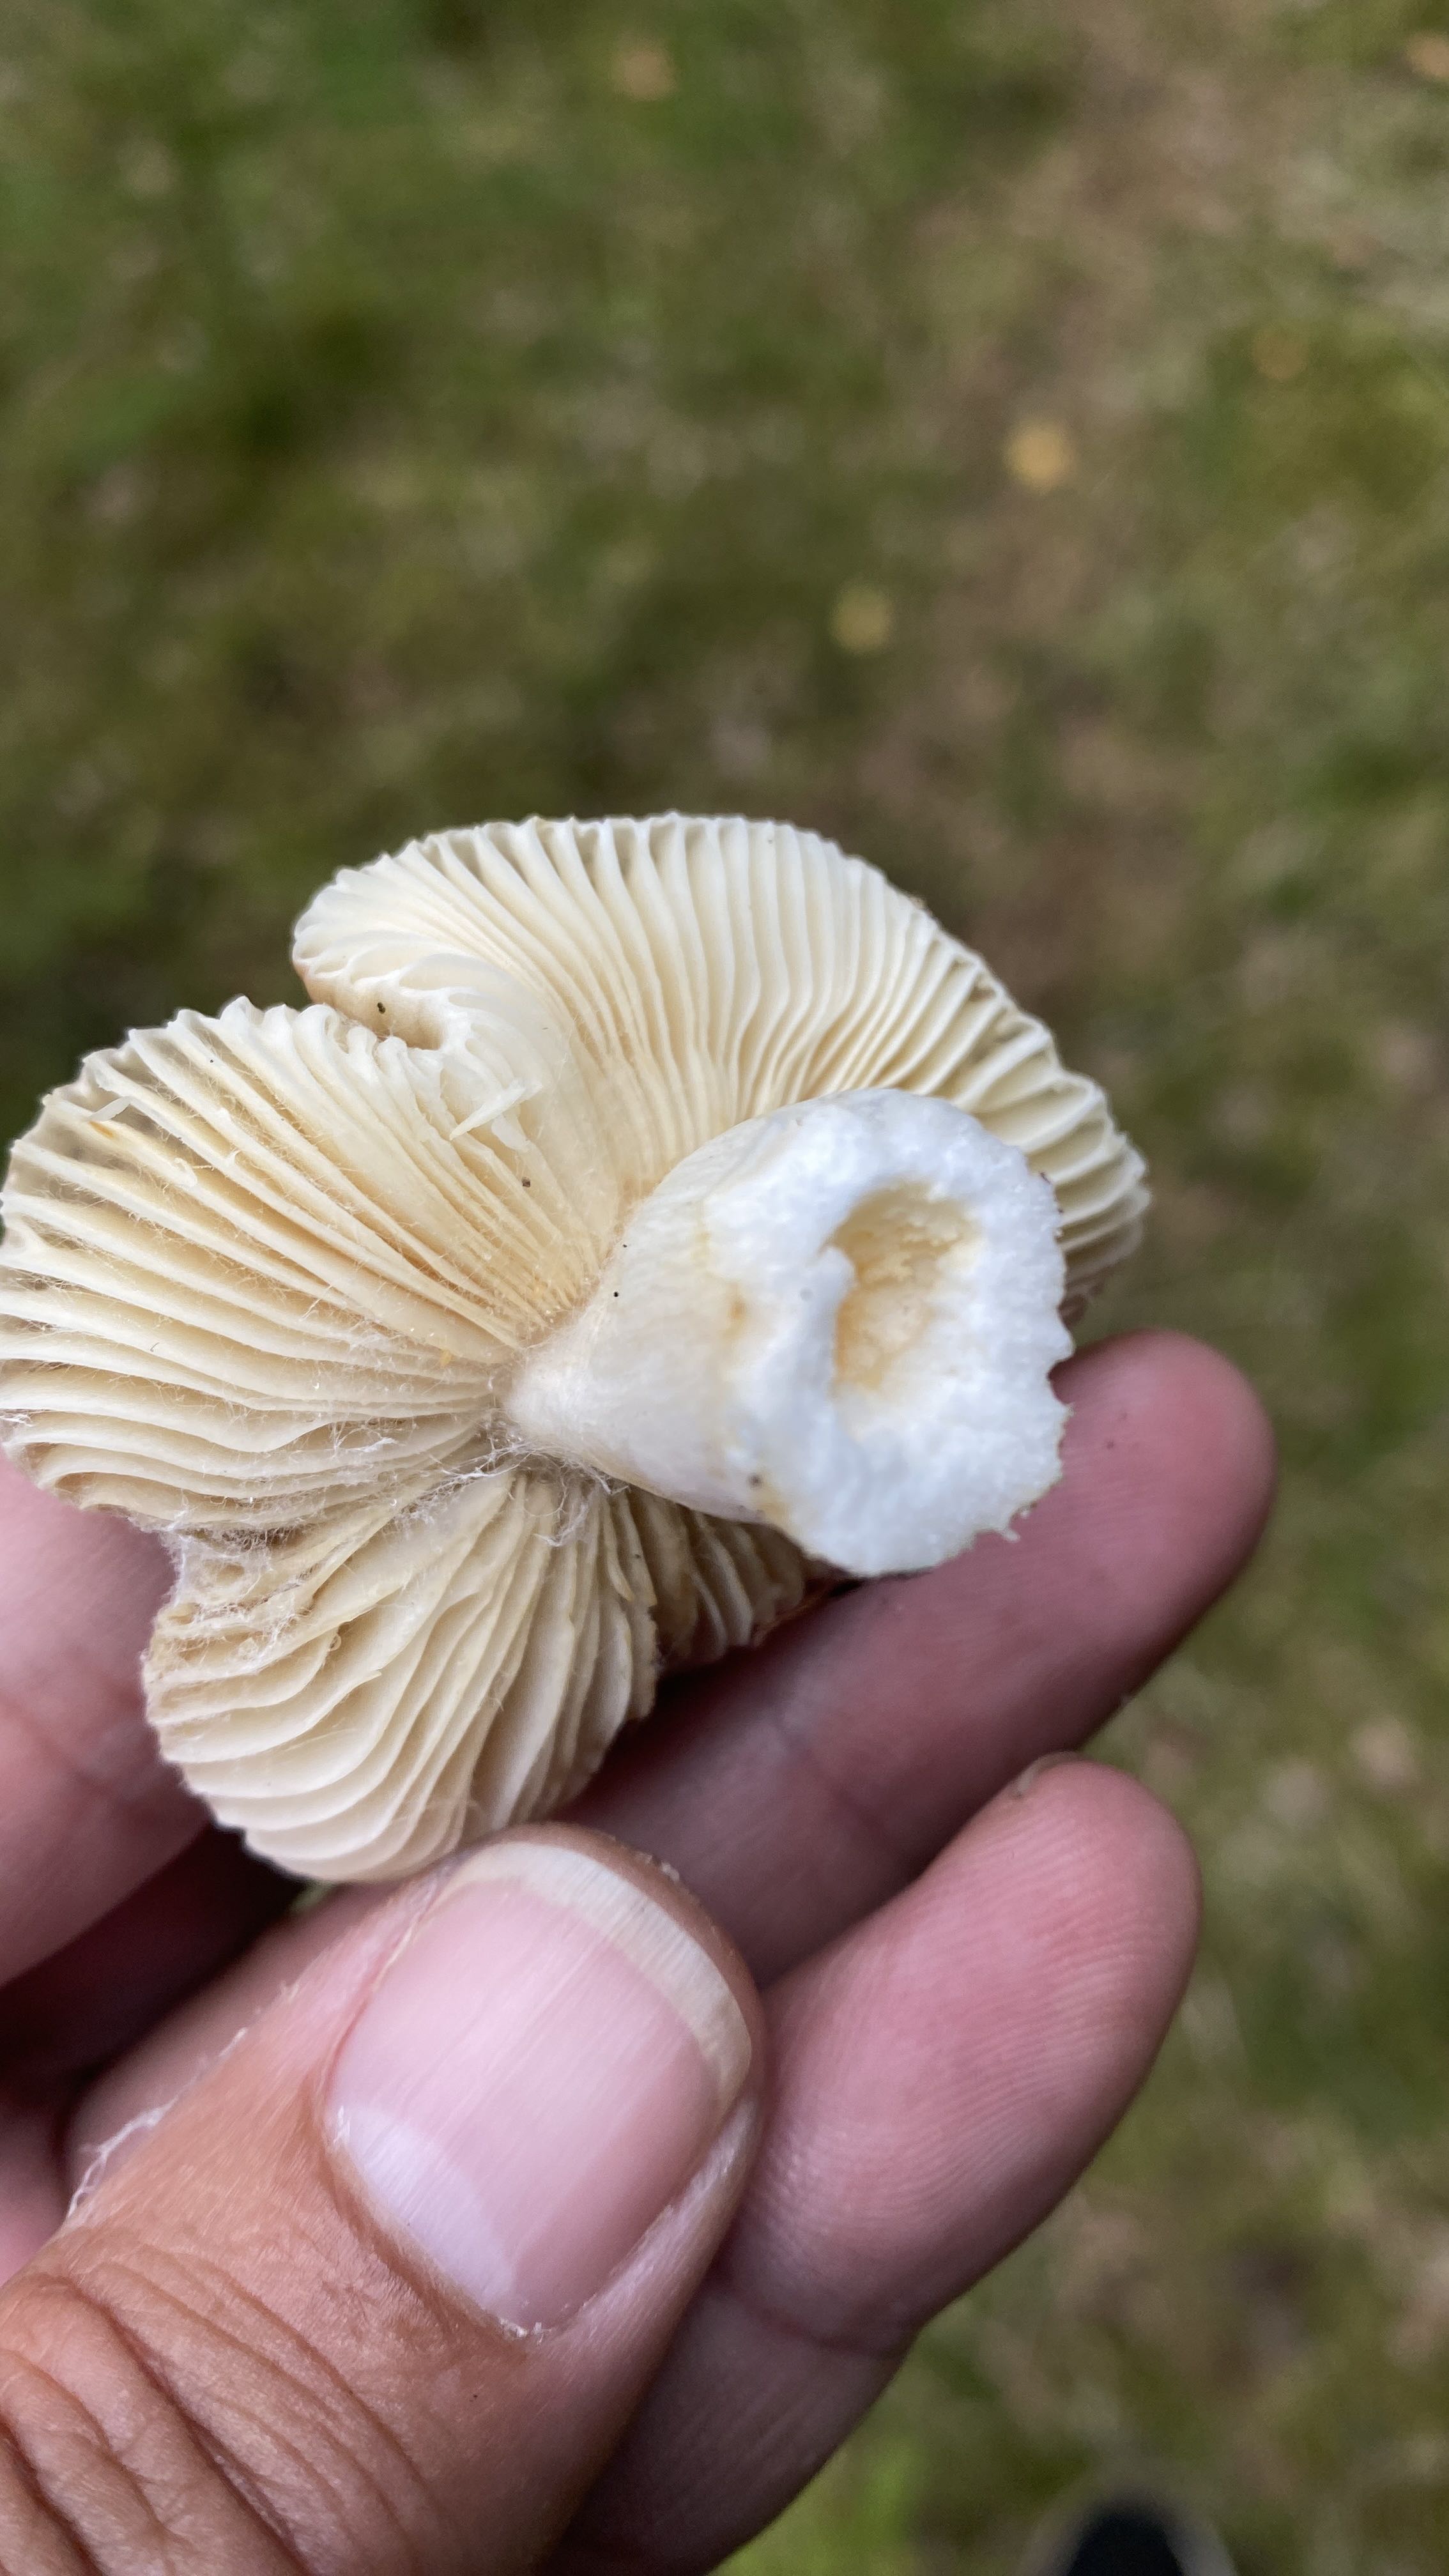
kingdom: Fungi
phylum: Basidiomycota
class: Agaricomycetes
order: Russulales
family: Russulaceae
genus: Russula
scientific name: Russula
